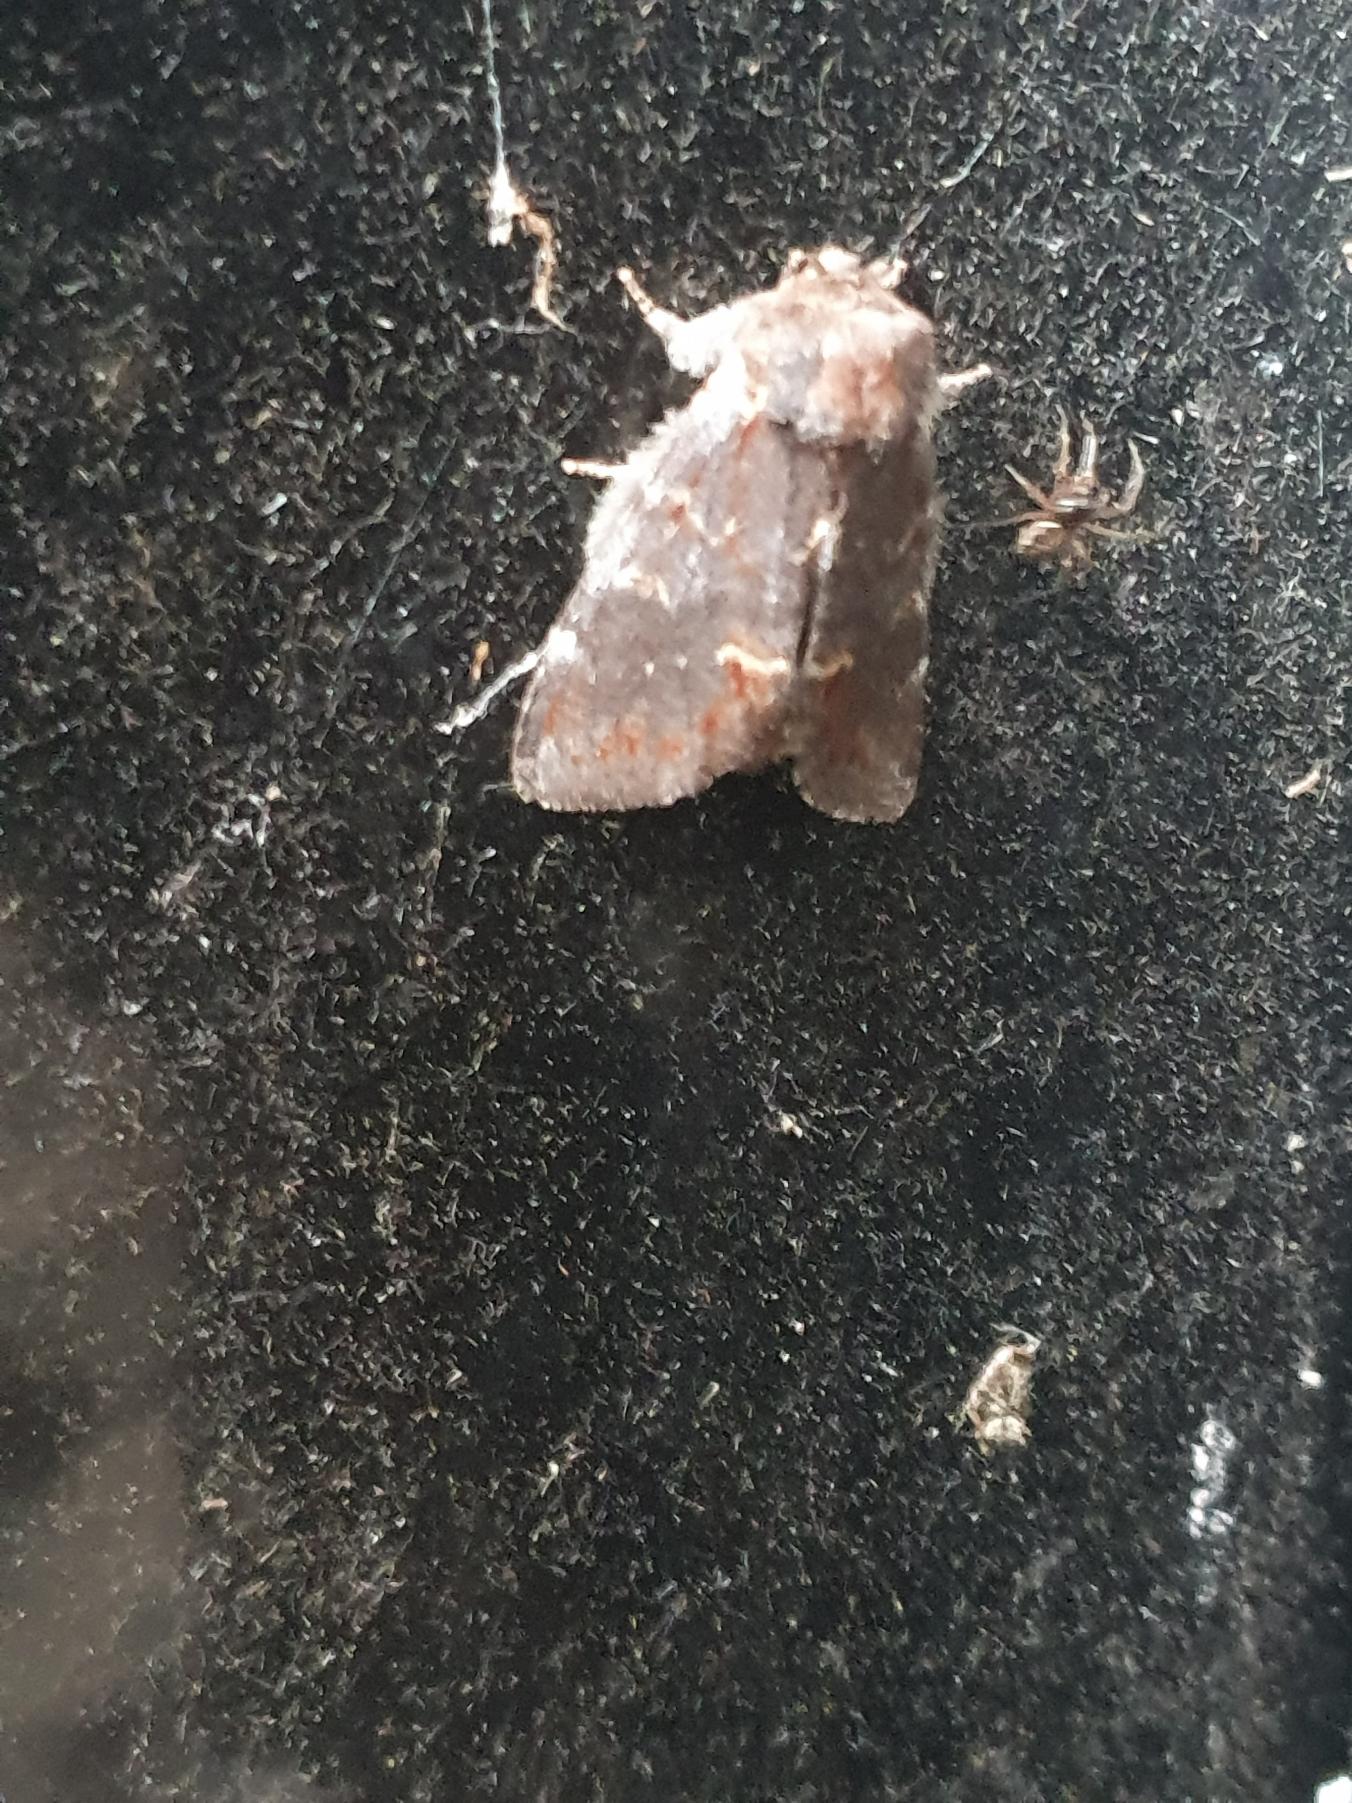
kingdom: Animalia
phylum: Arthropoda
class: Insecta
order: Lepidoptera
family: Notodontidae
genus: Notodonta
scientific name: Notodonta dromedarius
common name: Dromedarspinder
